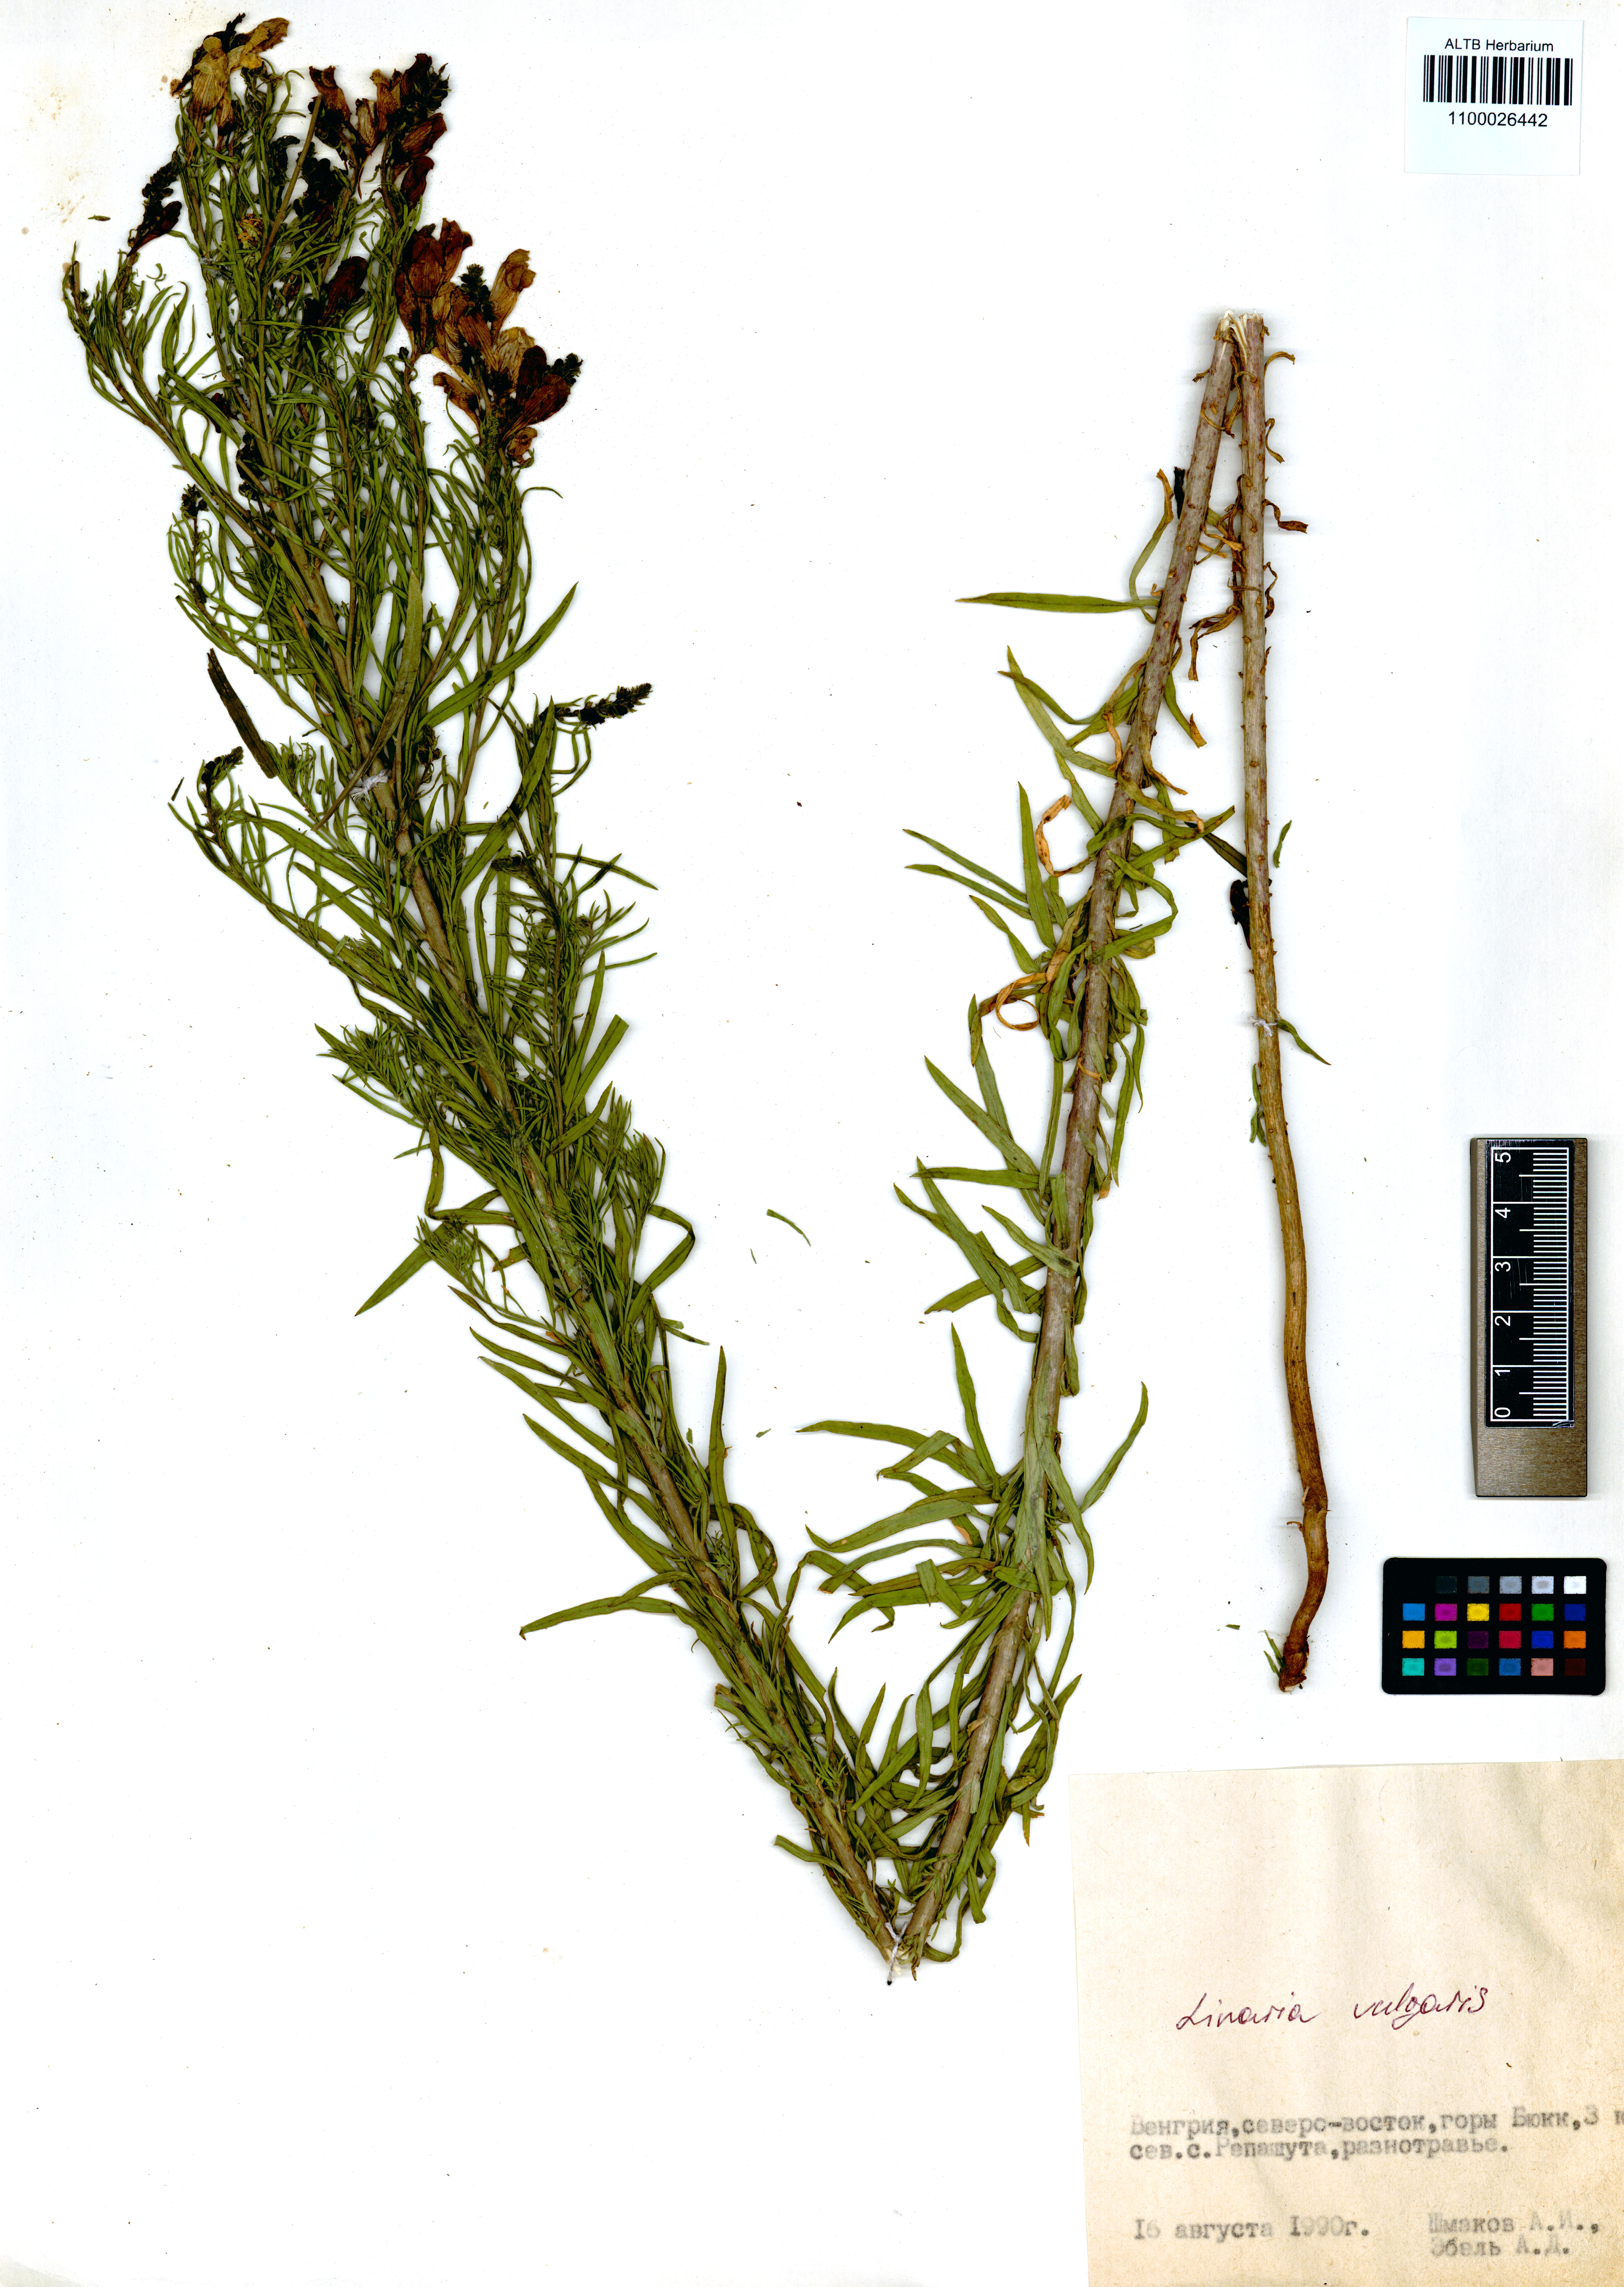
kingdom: Plantae
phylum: Tracheophyta
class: Magnoliopsida
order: Lamiales
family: Plantaginaceae
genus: Linaria
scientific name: Linaria vulgaris
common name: Butter and eggs
